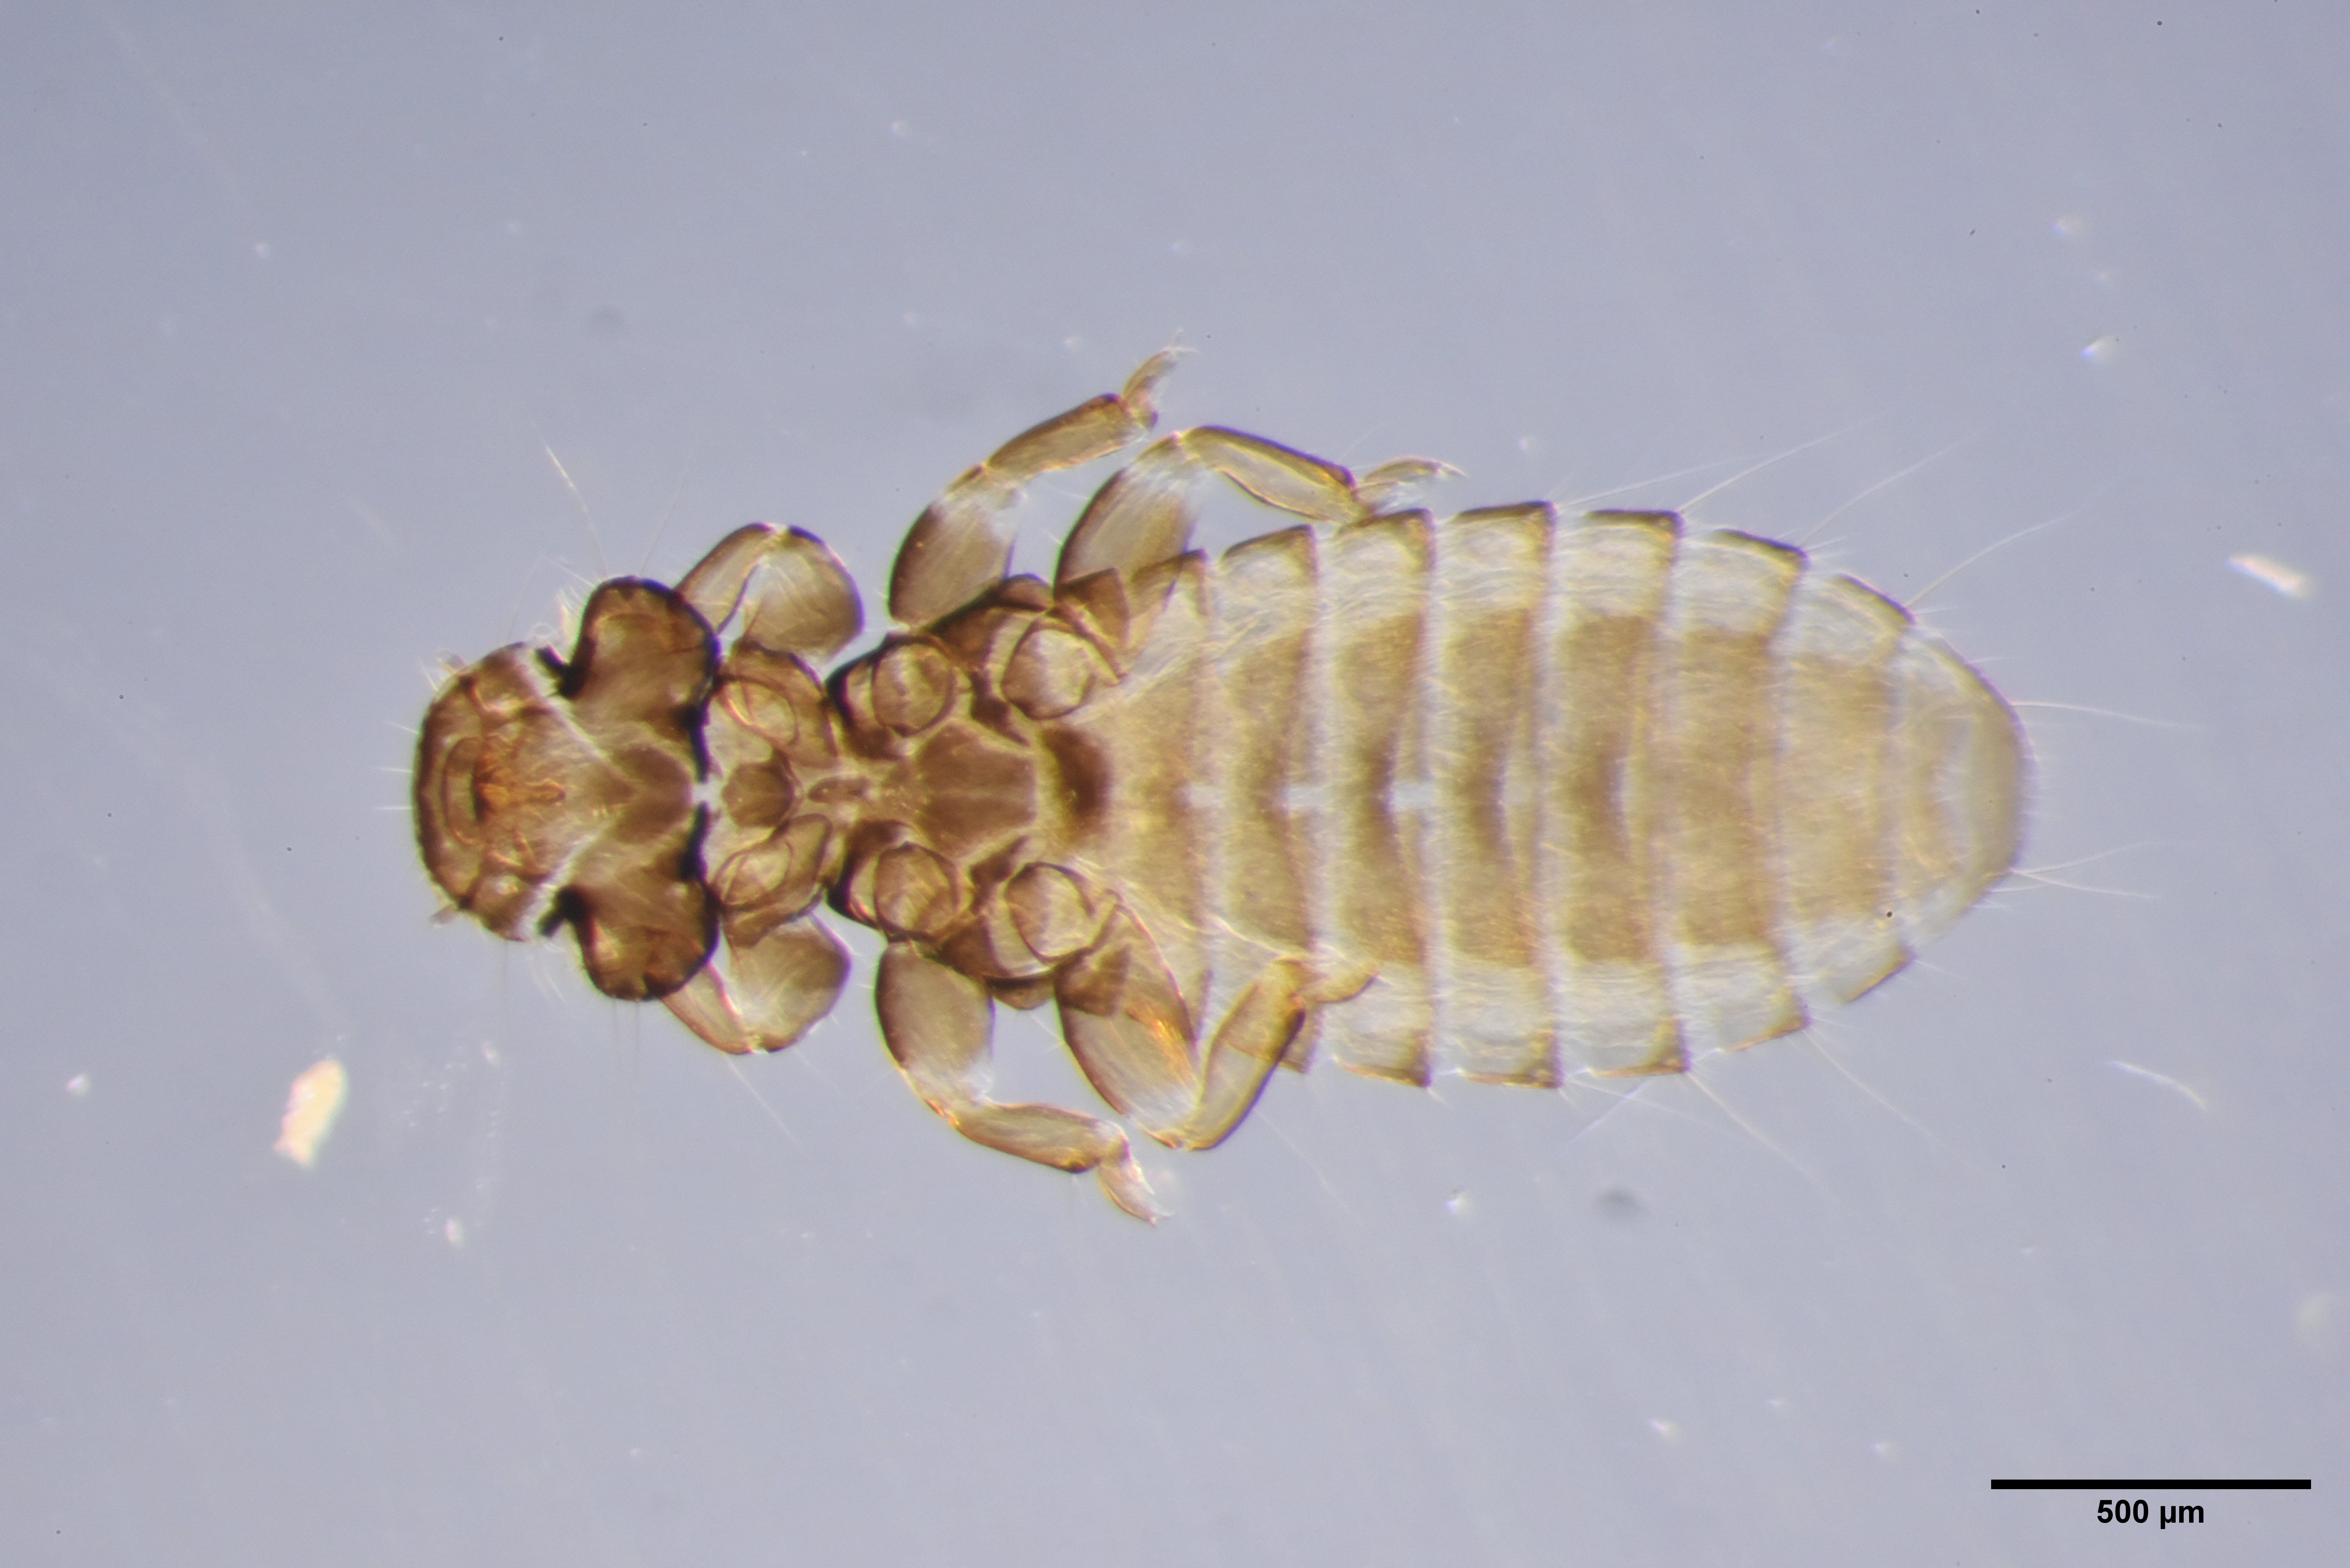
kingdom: Animalia
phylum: Arthropoda
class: Insecta
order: Psocodea
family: Ancistronidae
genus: Actornithophilus
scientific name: Actornithophilus piceus
